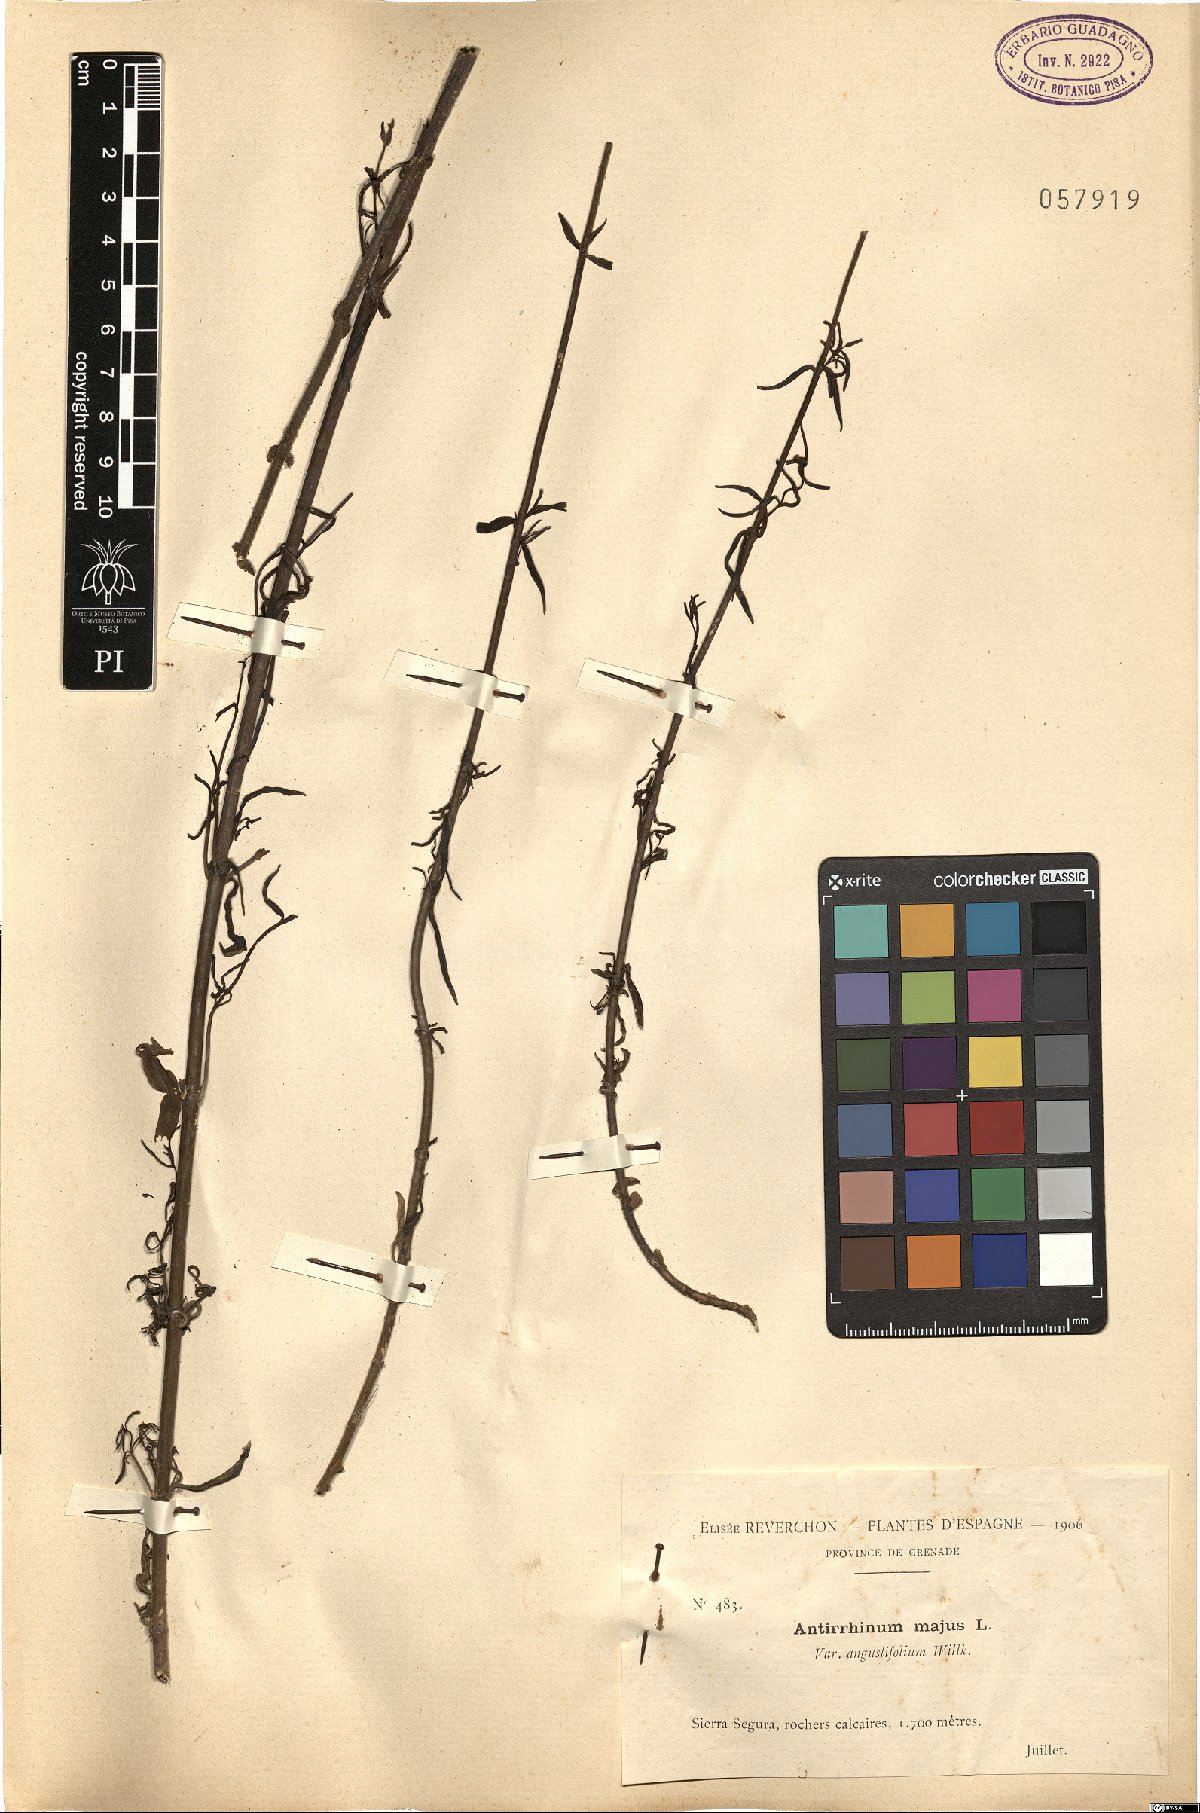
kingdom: Plantae
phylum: Tracheophyta
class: Magnoliopsida
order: Lamiales
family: Plantaginaceae
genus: Antirrhinum
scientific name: Antirrhinum tortuosum
